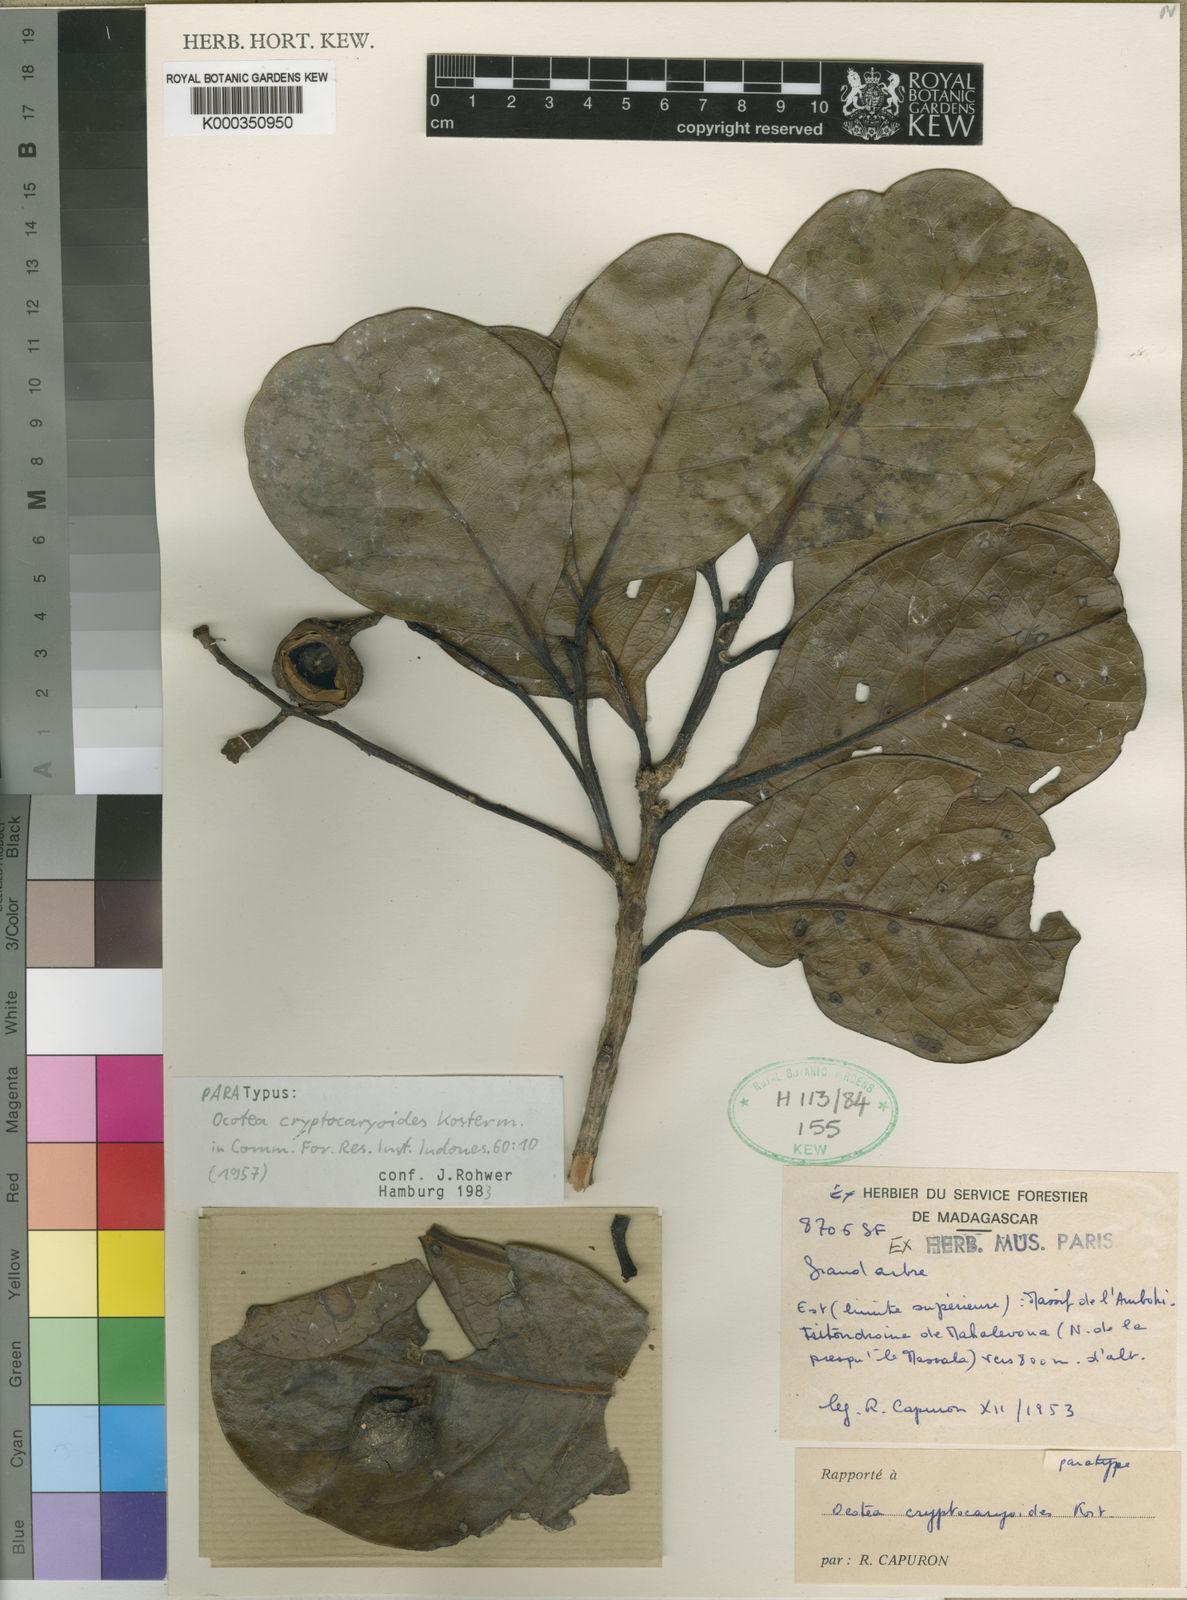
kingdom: Plantae
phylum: Tracheophyta
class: Magnoliopsida
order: Laurales
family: Lauraceae
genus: Ocotea
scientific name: Ocotea cryptocaryoides
